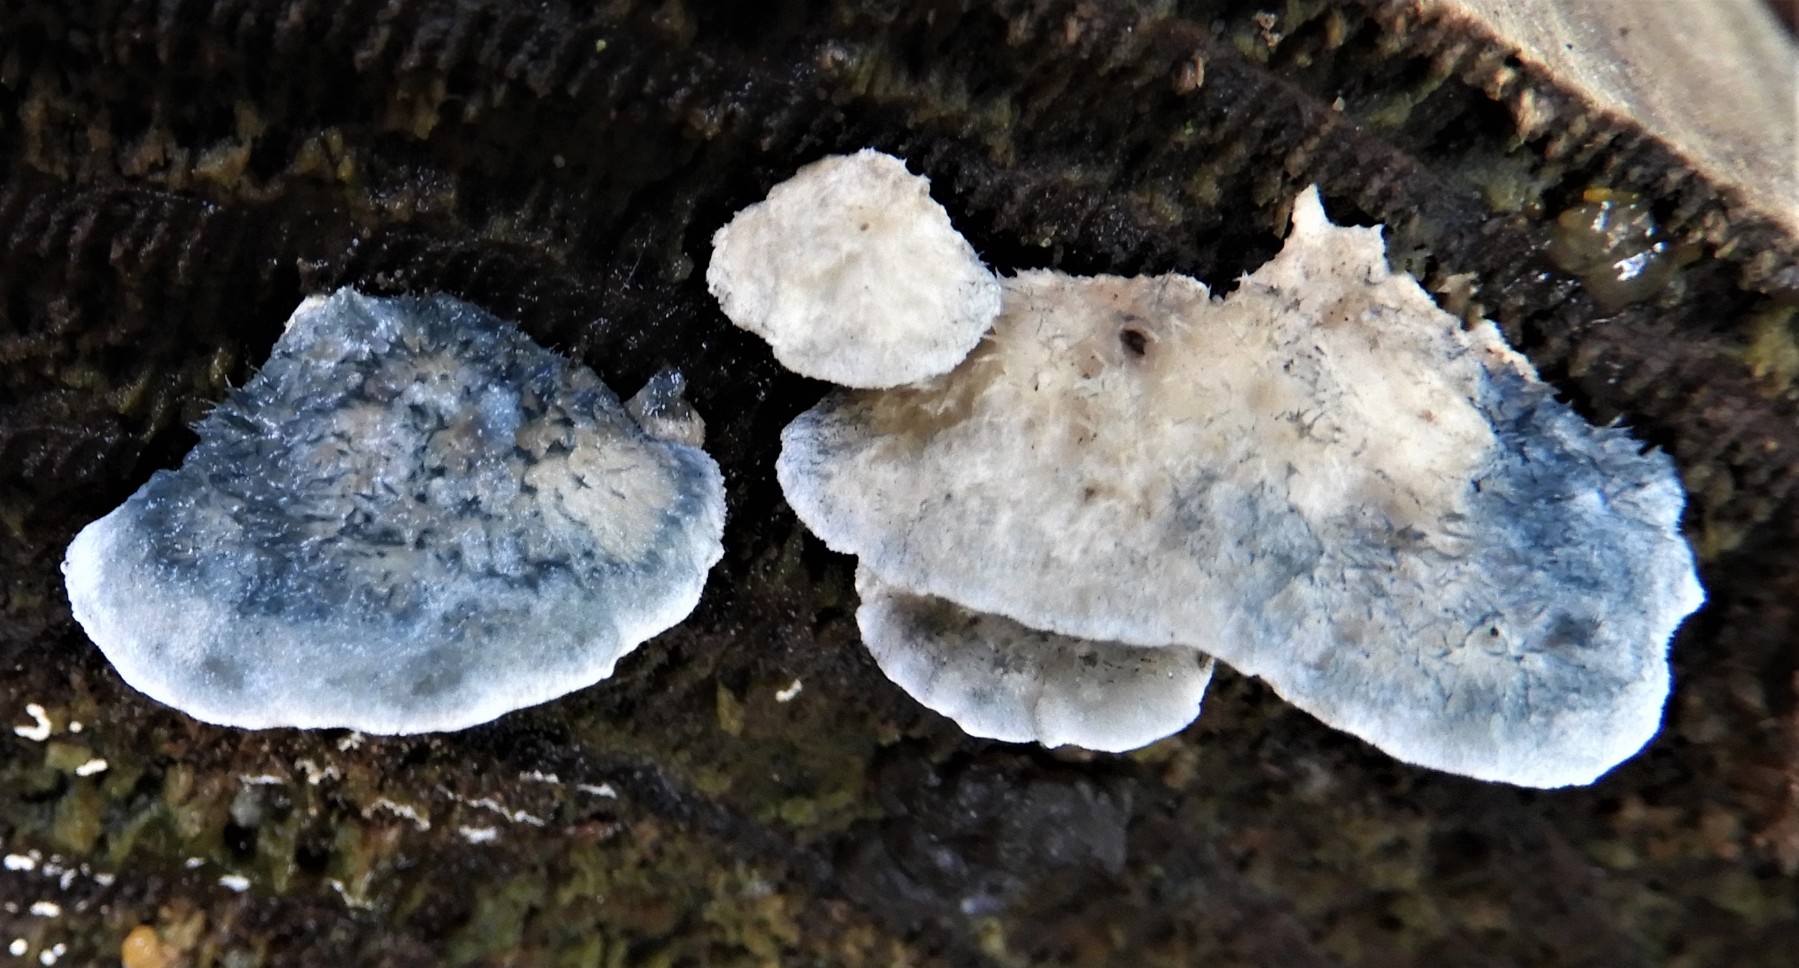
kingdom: Fungi
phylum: Basidiomycota
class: Agaricomycetes
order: Polyporales
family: Polyporaceae
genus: Cyanosporus
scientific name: Cyanosporus caesius
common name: blålig kødporesvamp
